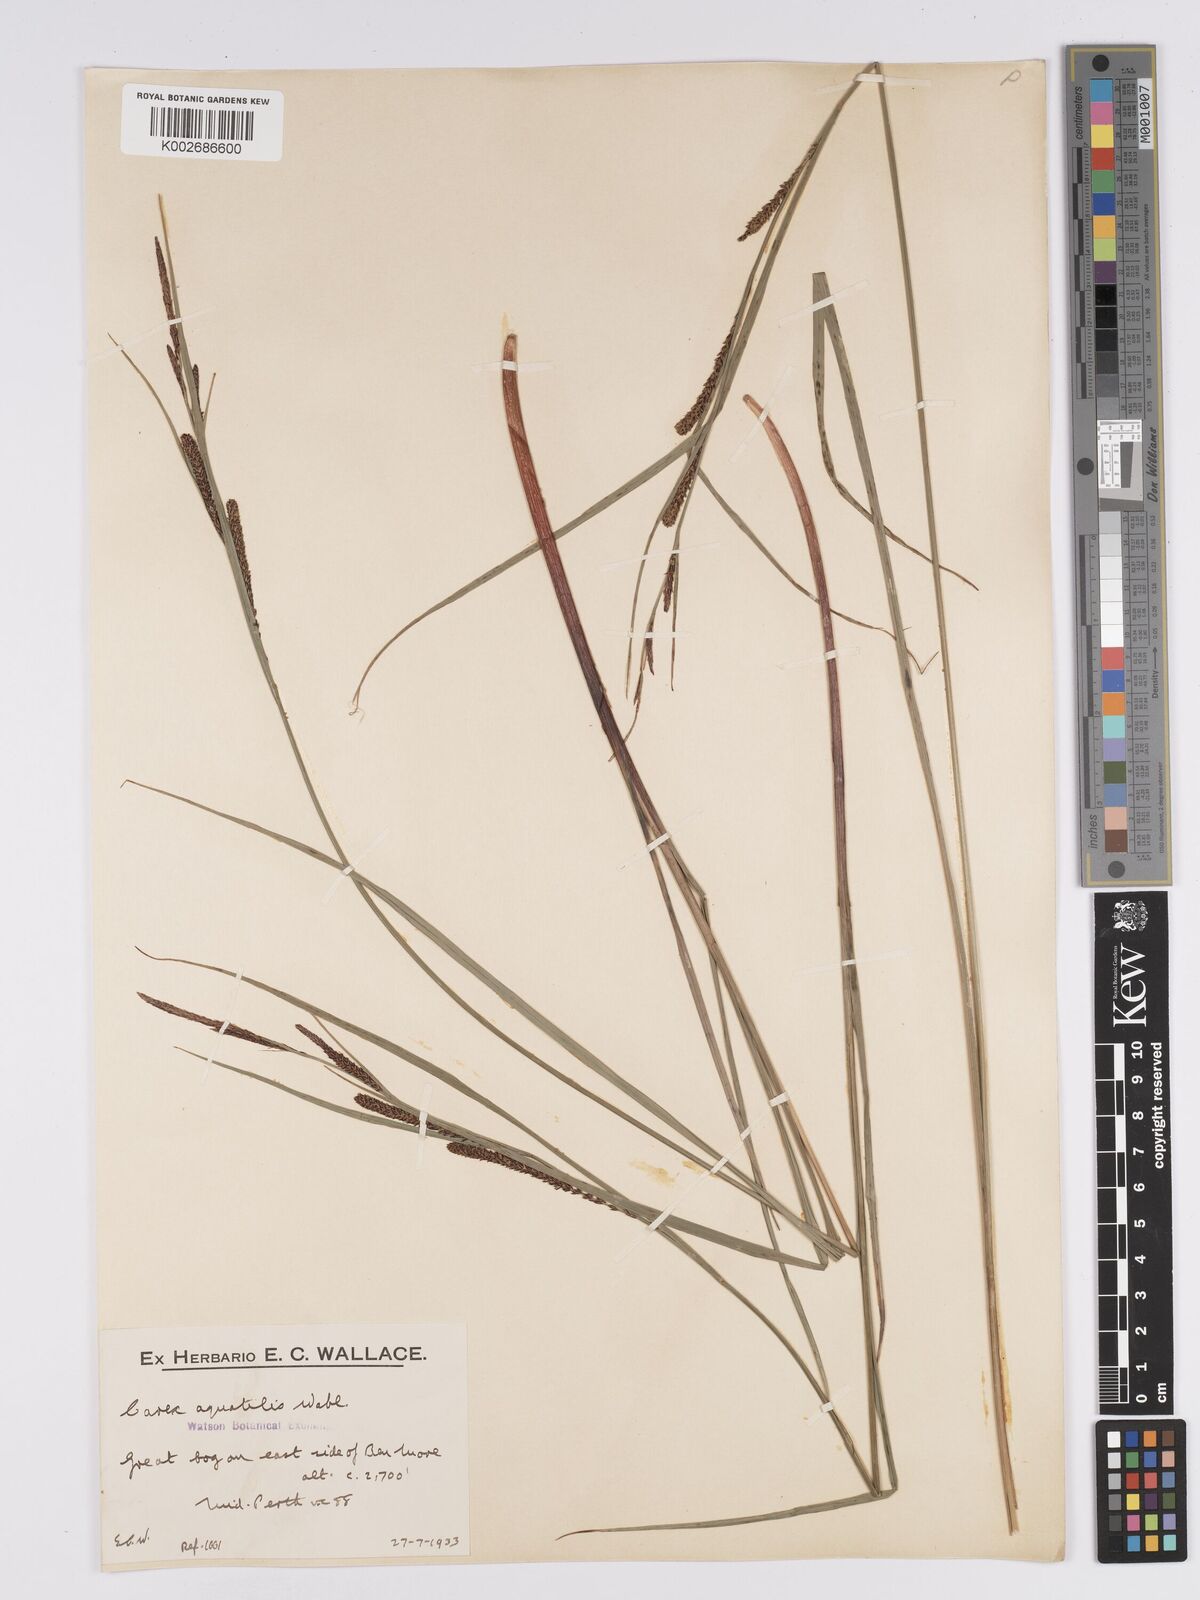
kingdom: Plantae
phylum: Tracheophyta
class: Liliopsida
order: Poales
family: Cyperaceae
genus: Carex
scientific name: Carex aquatilis
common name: Water sedge
